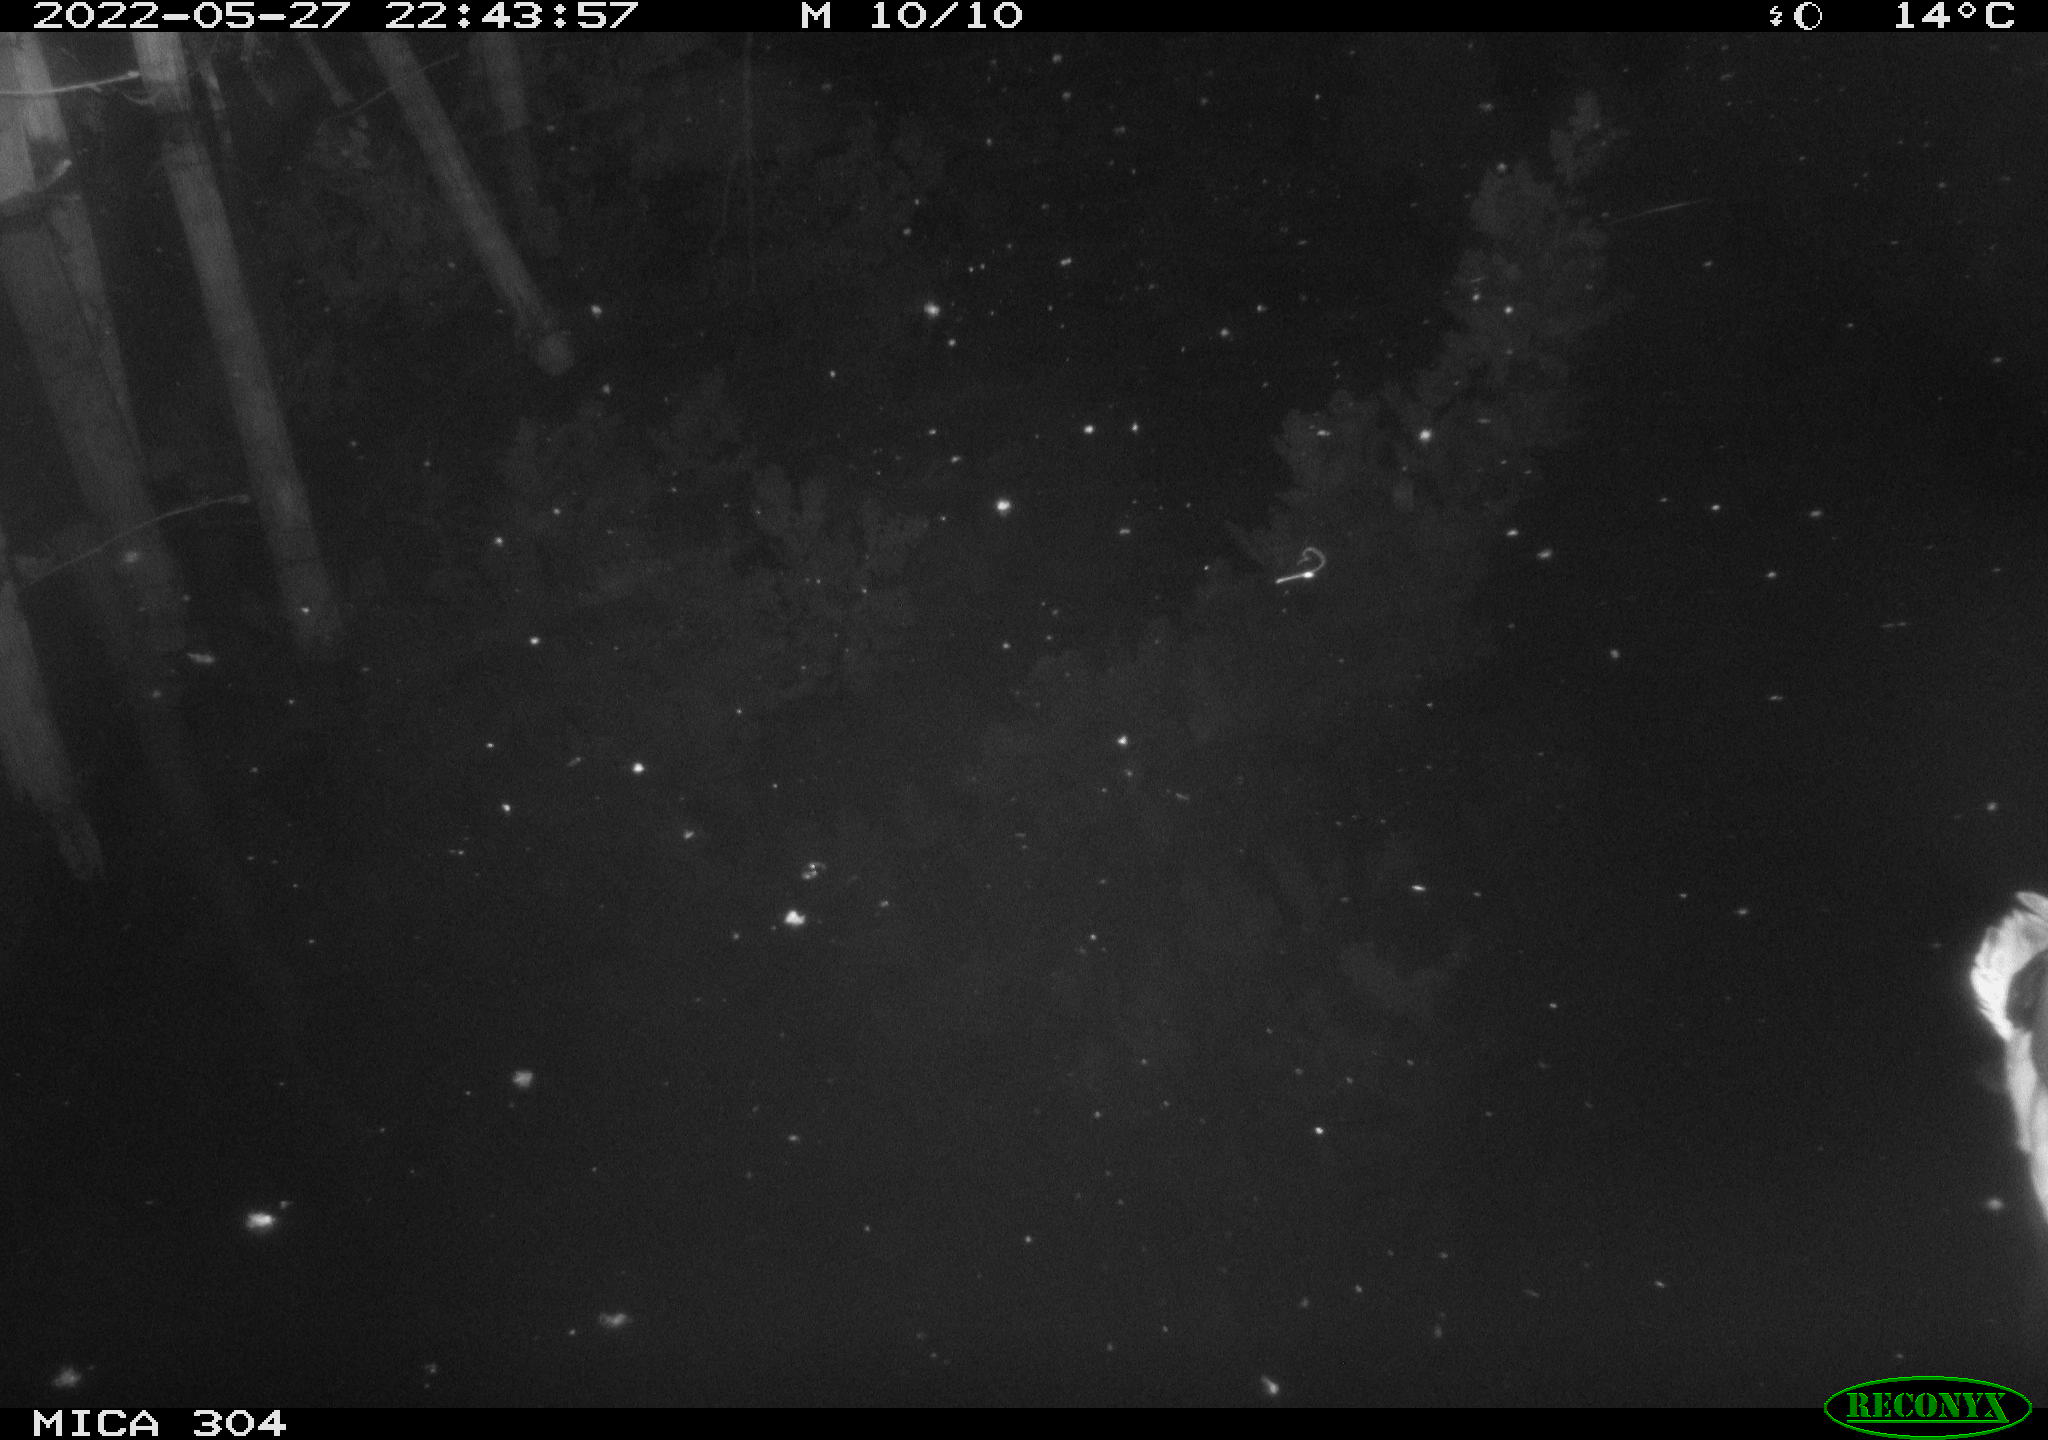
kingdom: Animalia
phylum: Chordata
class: Aves
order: Anseriformes
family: Anatidae
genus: Anas
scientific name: Anas platyrhynchos
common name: Mallard
